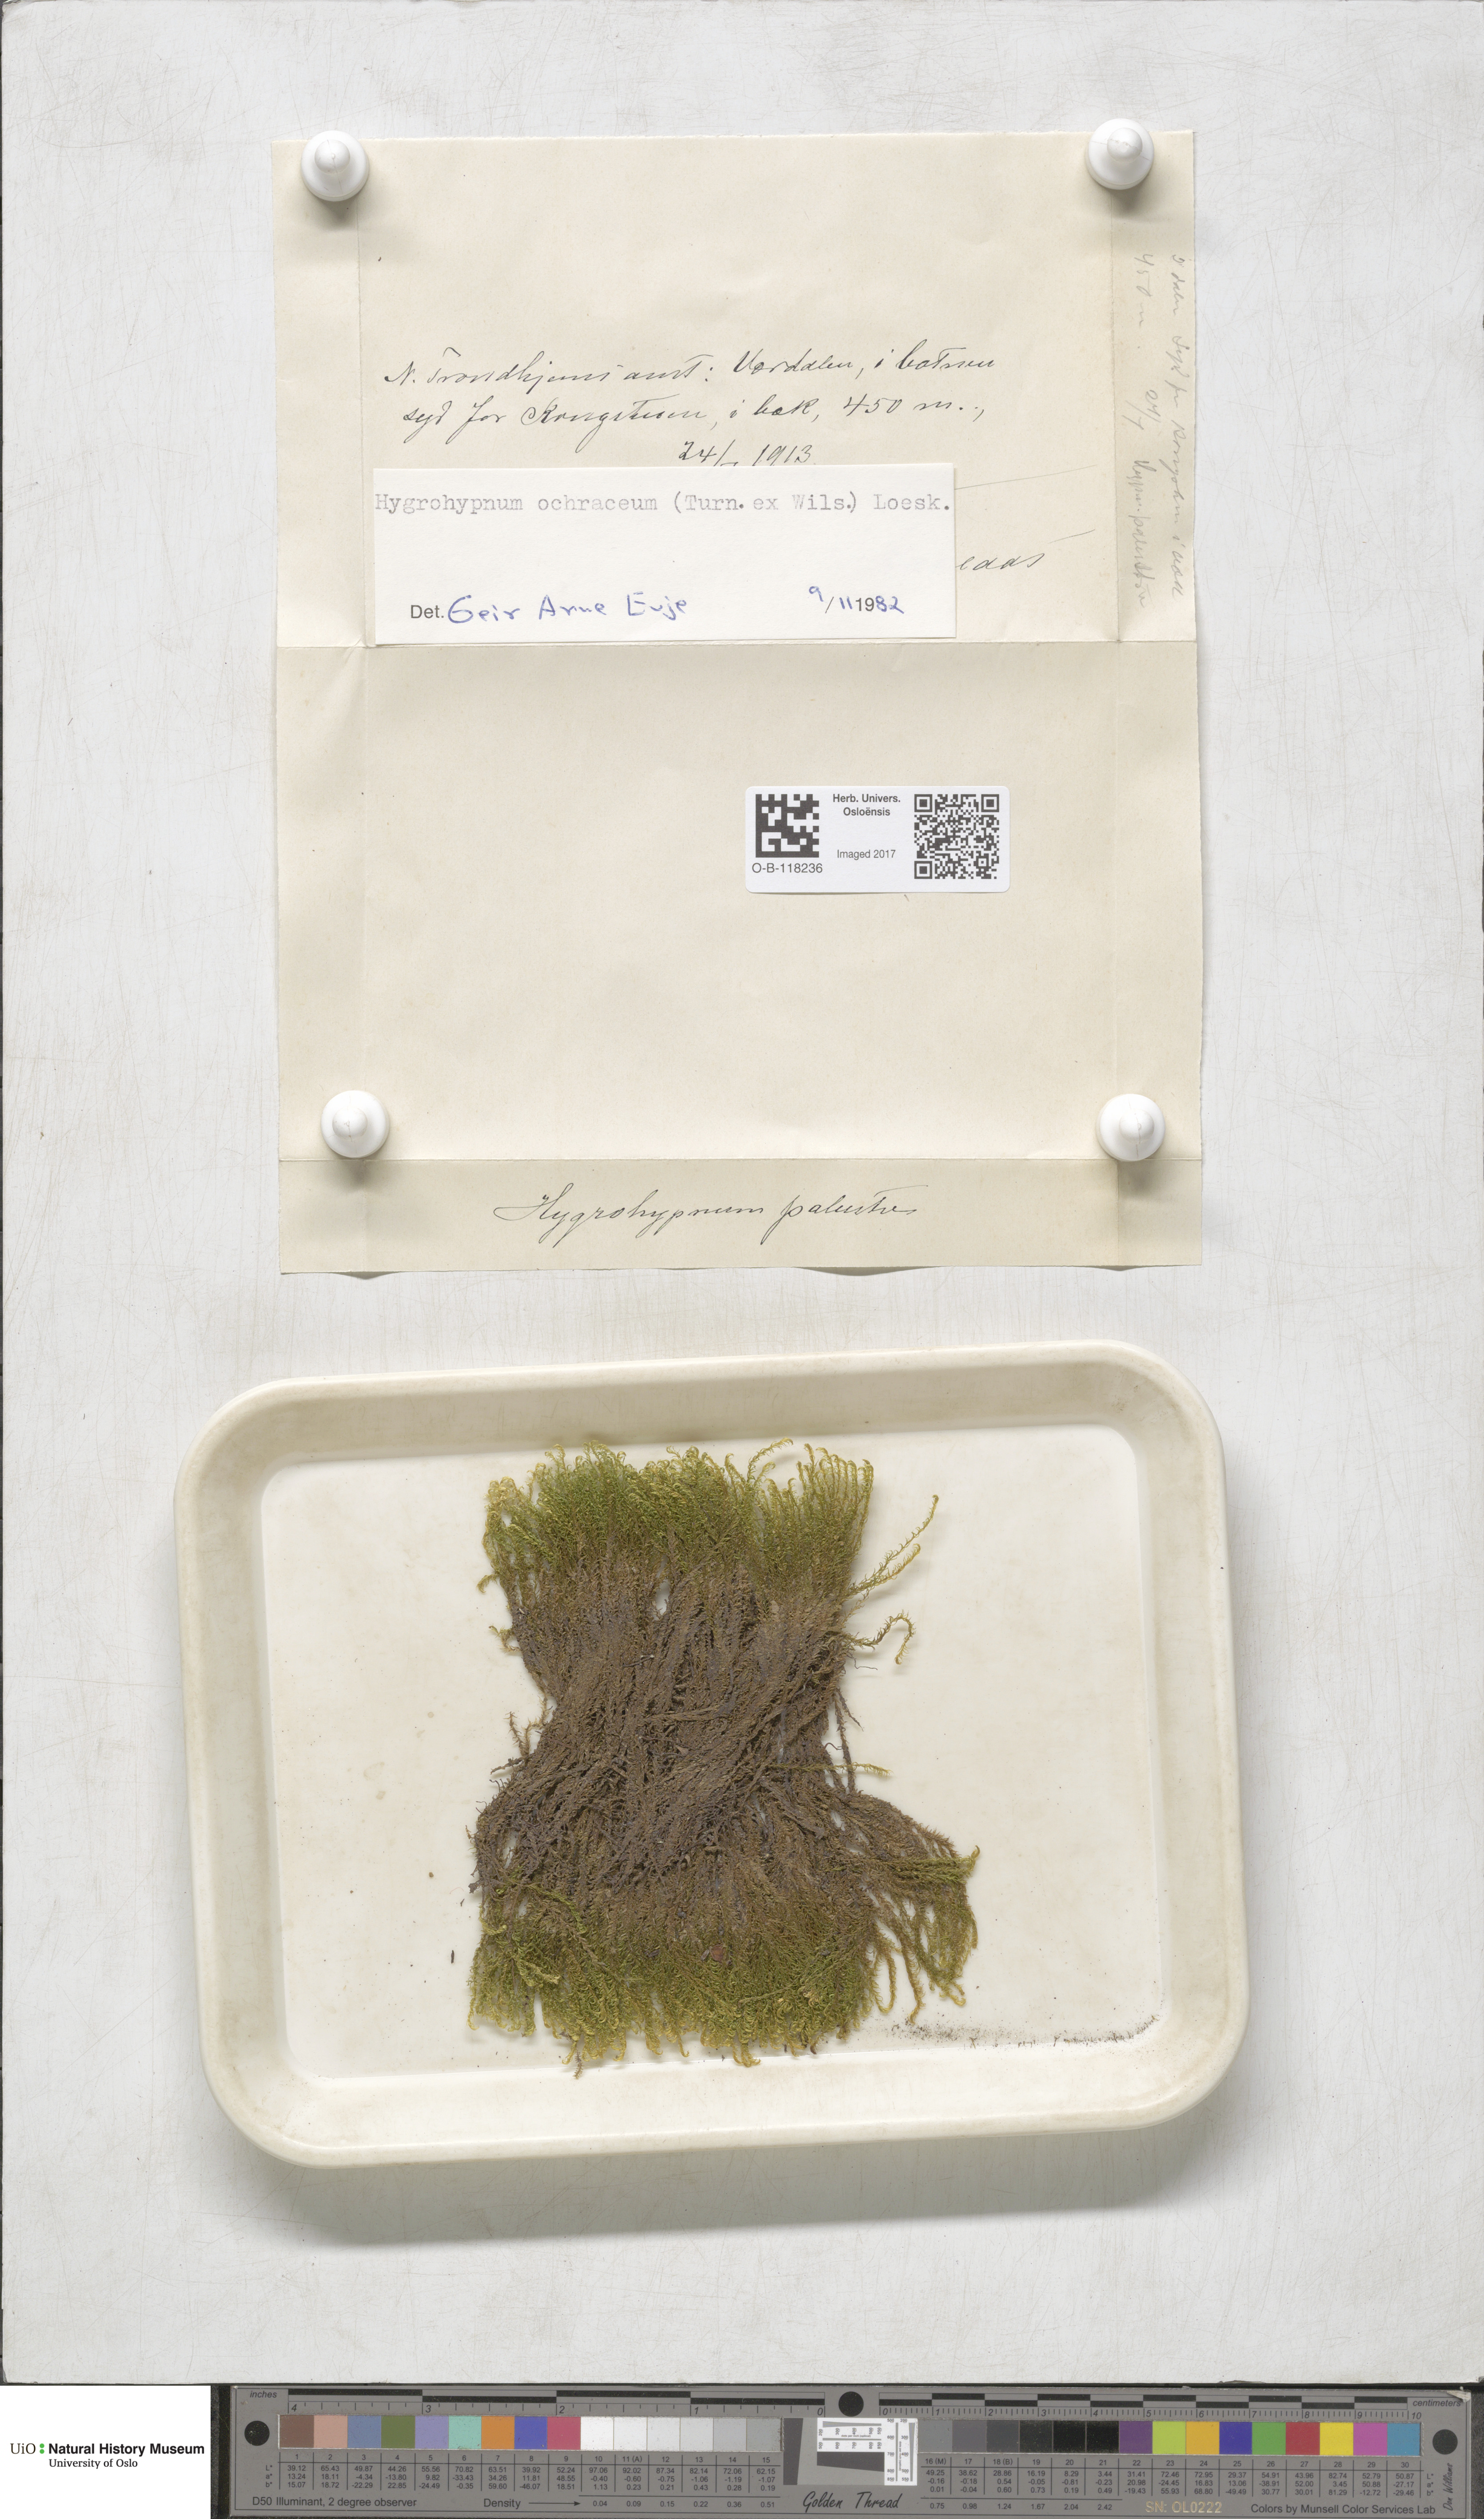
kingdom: Plantae
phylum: Bryophyta
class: Bryopsida
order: Hypnales
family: Scorpidiaceae
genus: Hygrohypnella
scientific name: Hygrohypnella ochracea
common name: Hygrohypnum moss
